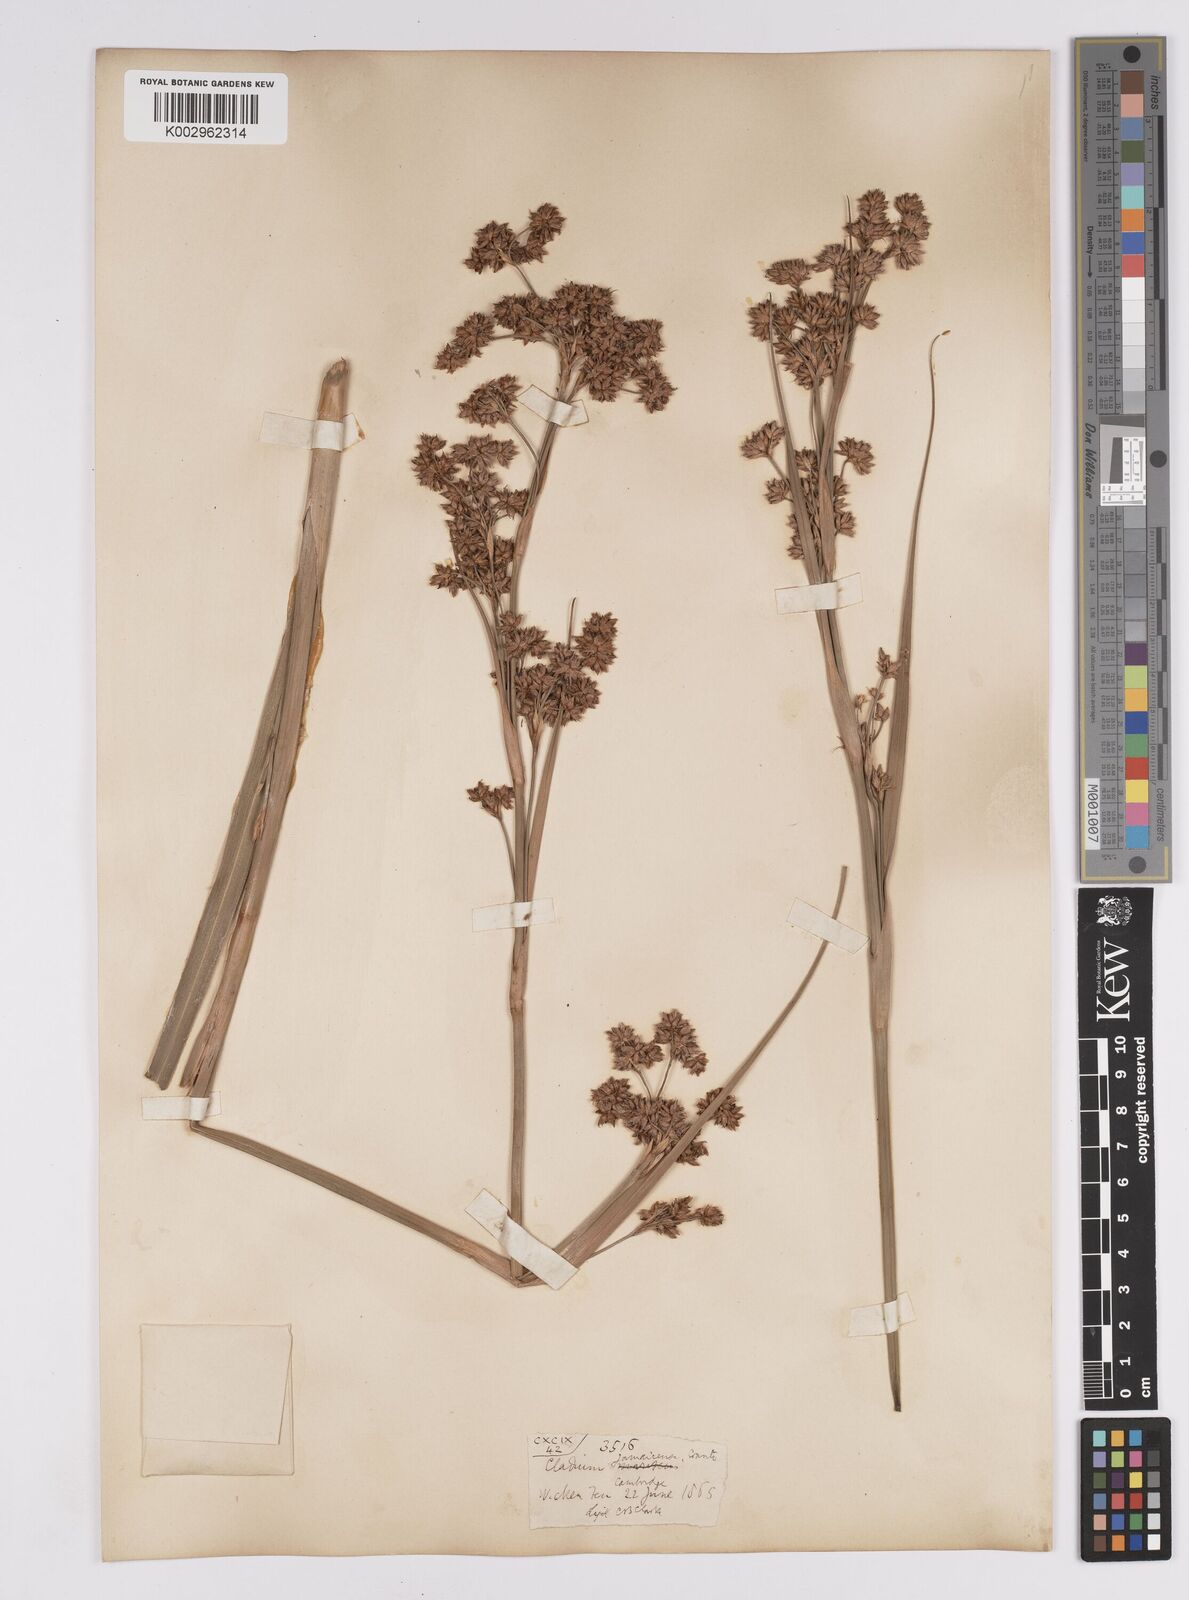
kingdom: Plantae
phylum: Tracheophyta
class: Liliopsida
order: Poales
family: Cyperaceae
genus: Cladium
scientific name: Cladium mariscus
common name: Great fen-sedge
